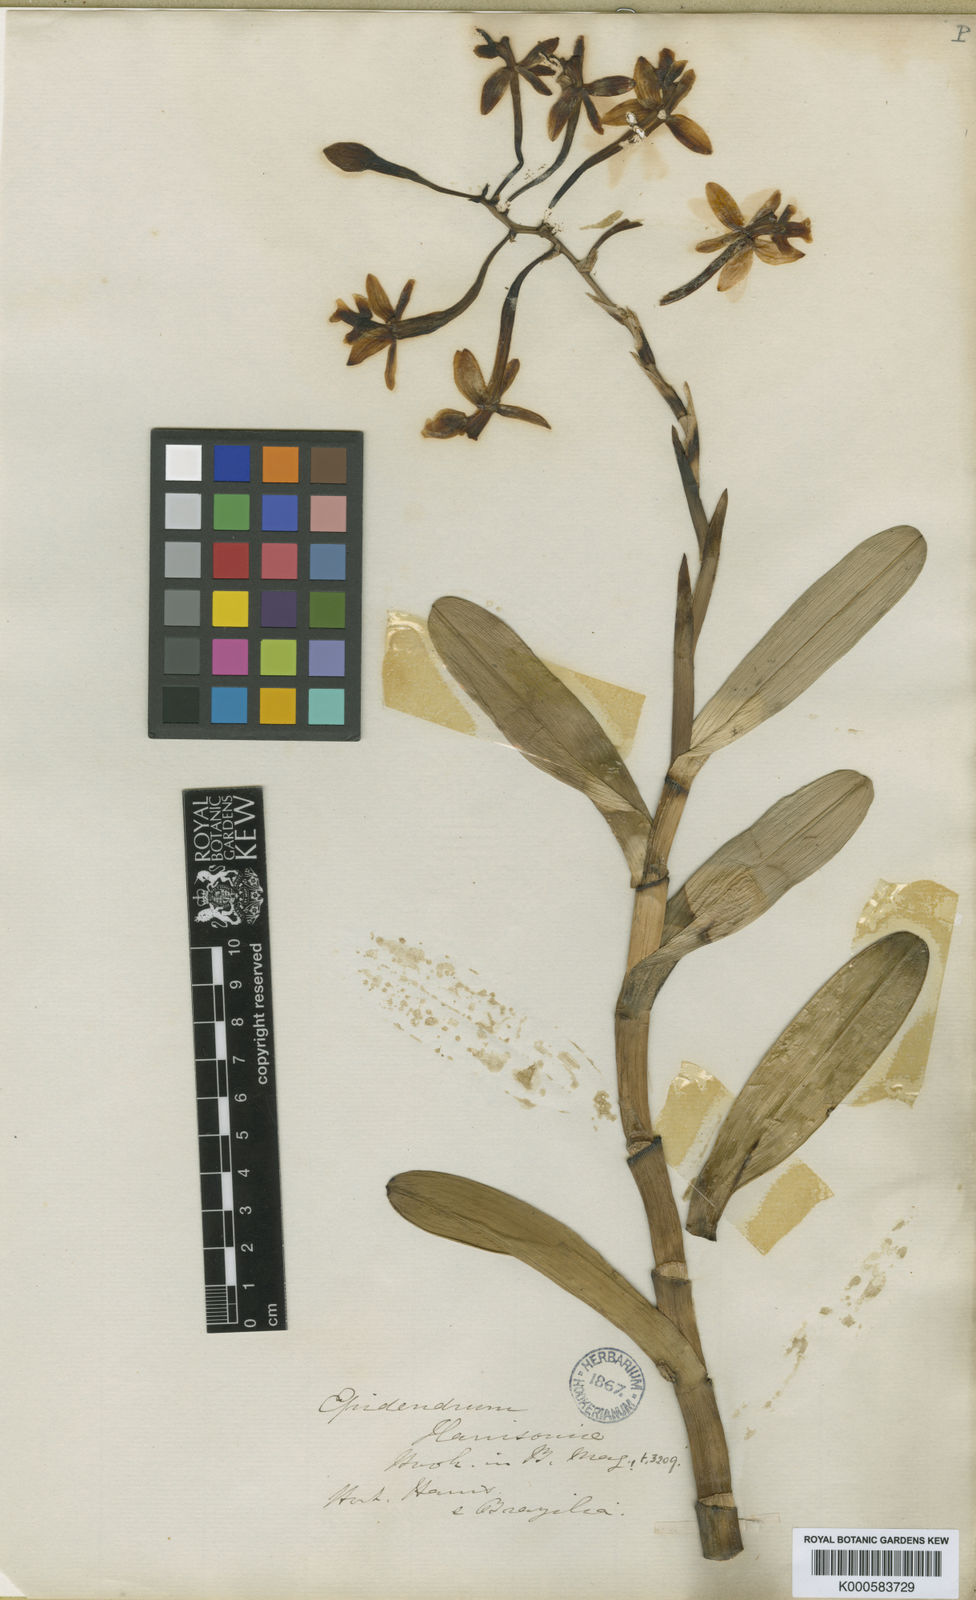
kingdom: Plantae
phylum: Tracheophyta
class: Liliopsida
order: Asparagales
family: Orchidaceae
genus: Epidendrum
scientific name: Epidendrum harrisoniae
